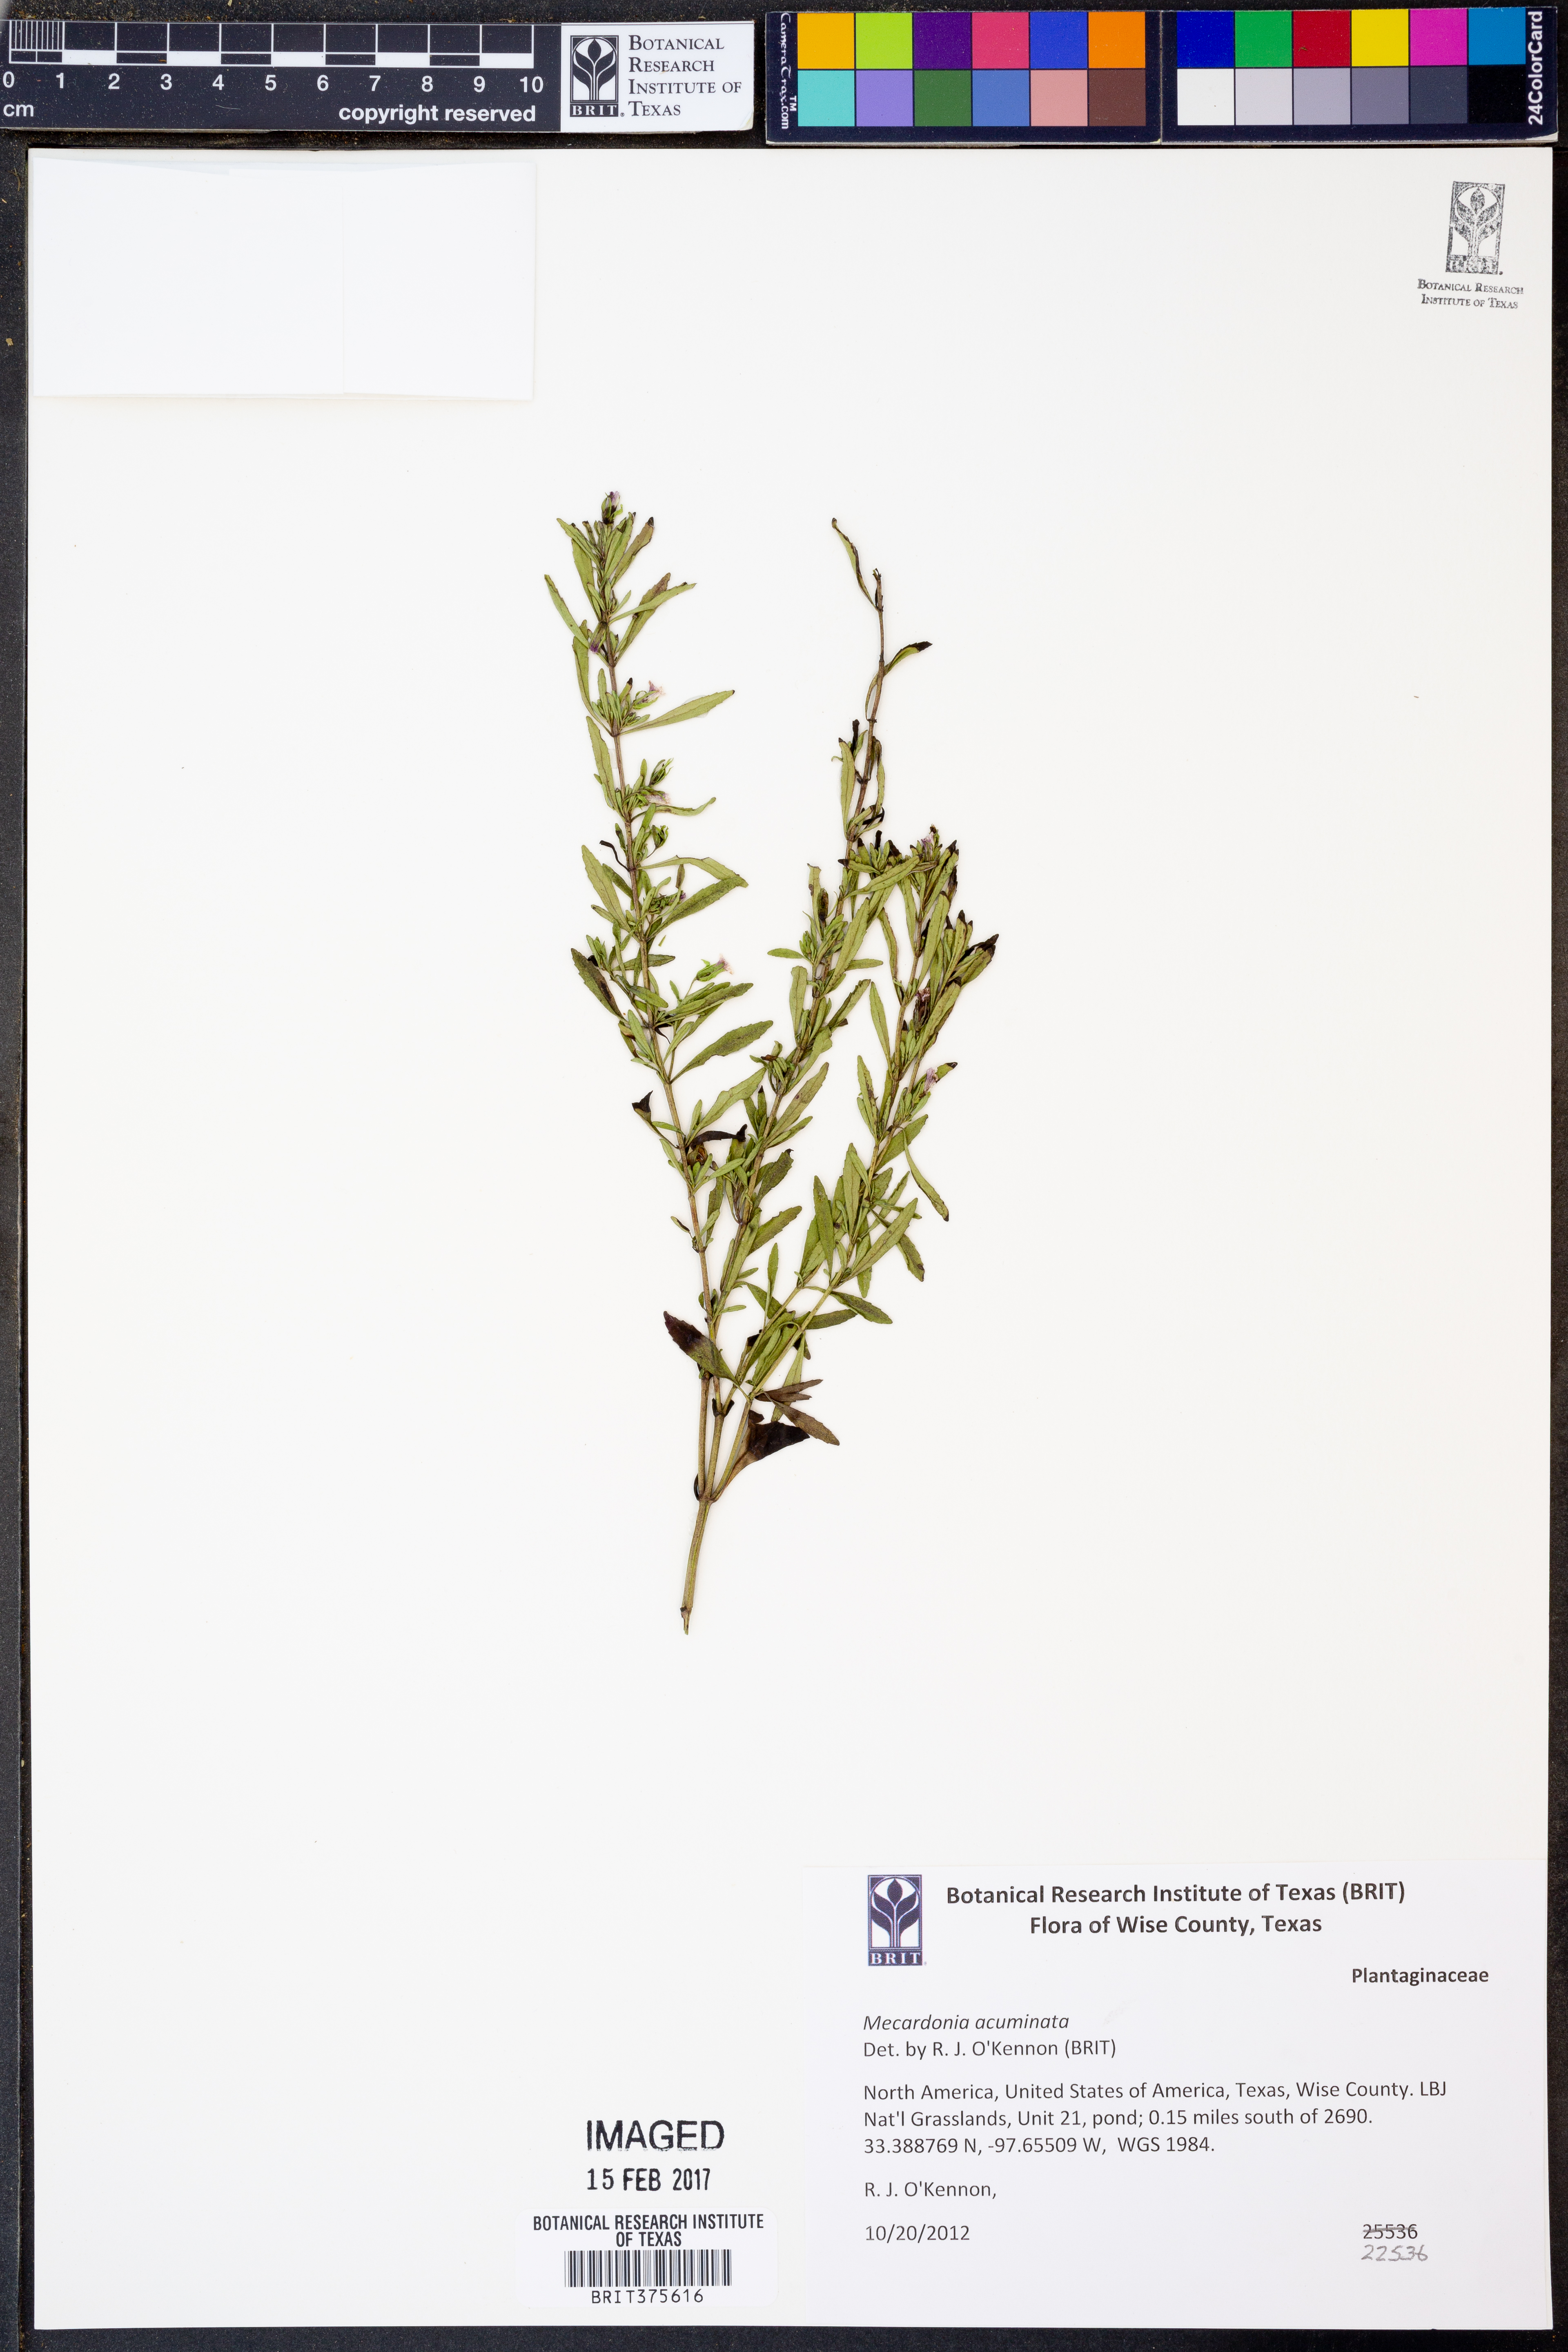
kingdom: Plantae
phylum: Tracheophyta
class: Magnoliopsida
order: Lamiales
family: Plantaginaceae
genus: Mecardonia
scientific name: Mecardonia acuminata
